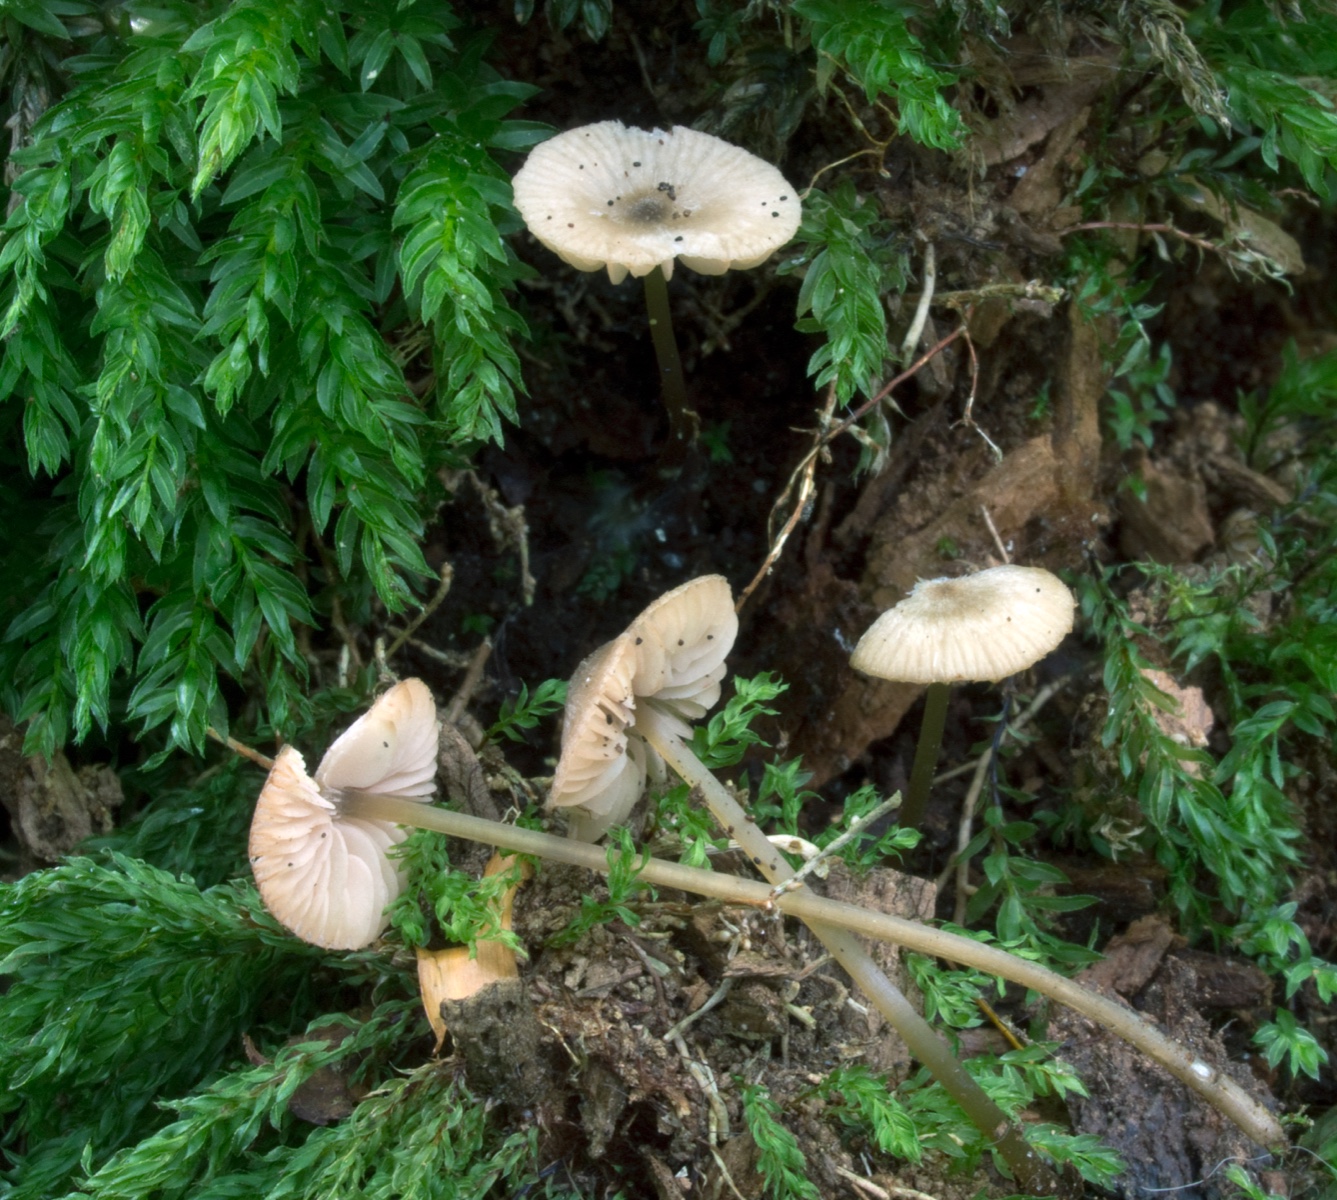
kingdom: Fungi
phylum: Basidiomycota
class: Agaricomycetes
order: Agaricales
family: Entolomataceae
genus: Entoloma
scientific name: Entoloma incognitum
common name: sommer-rødblad
